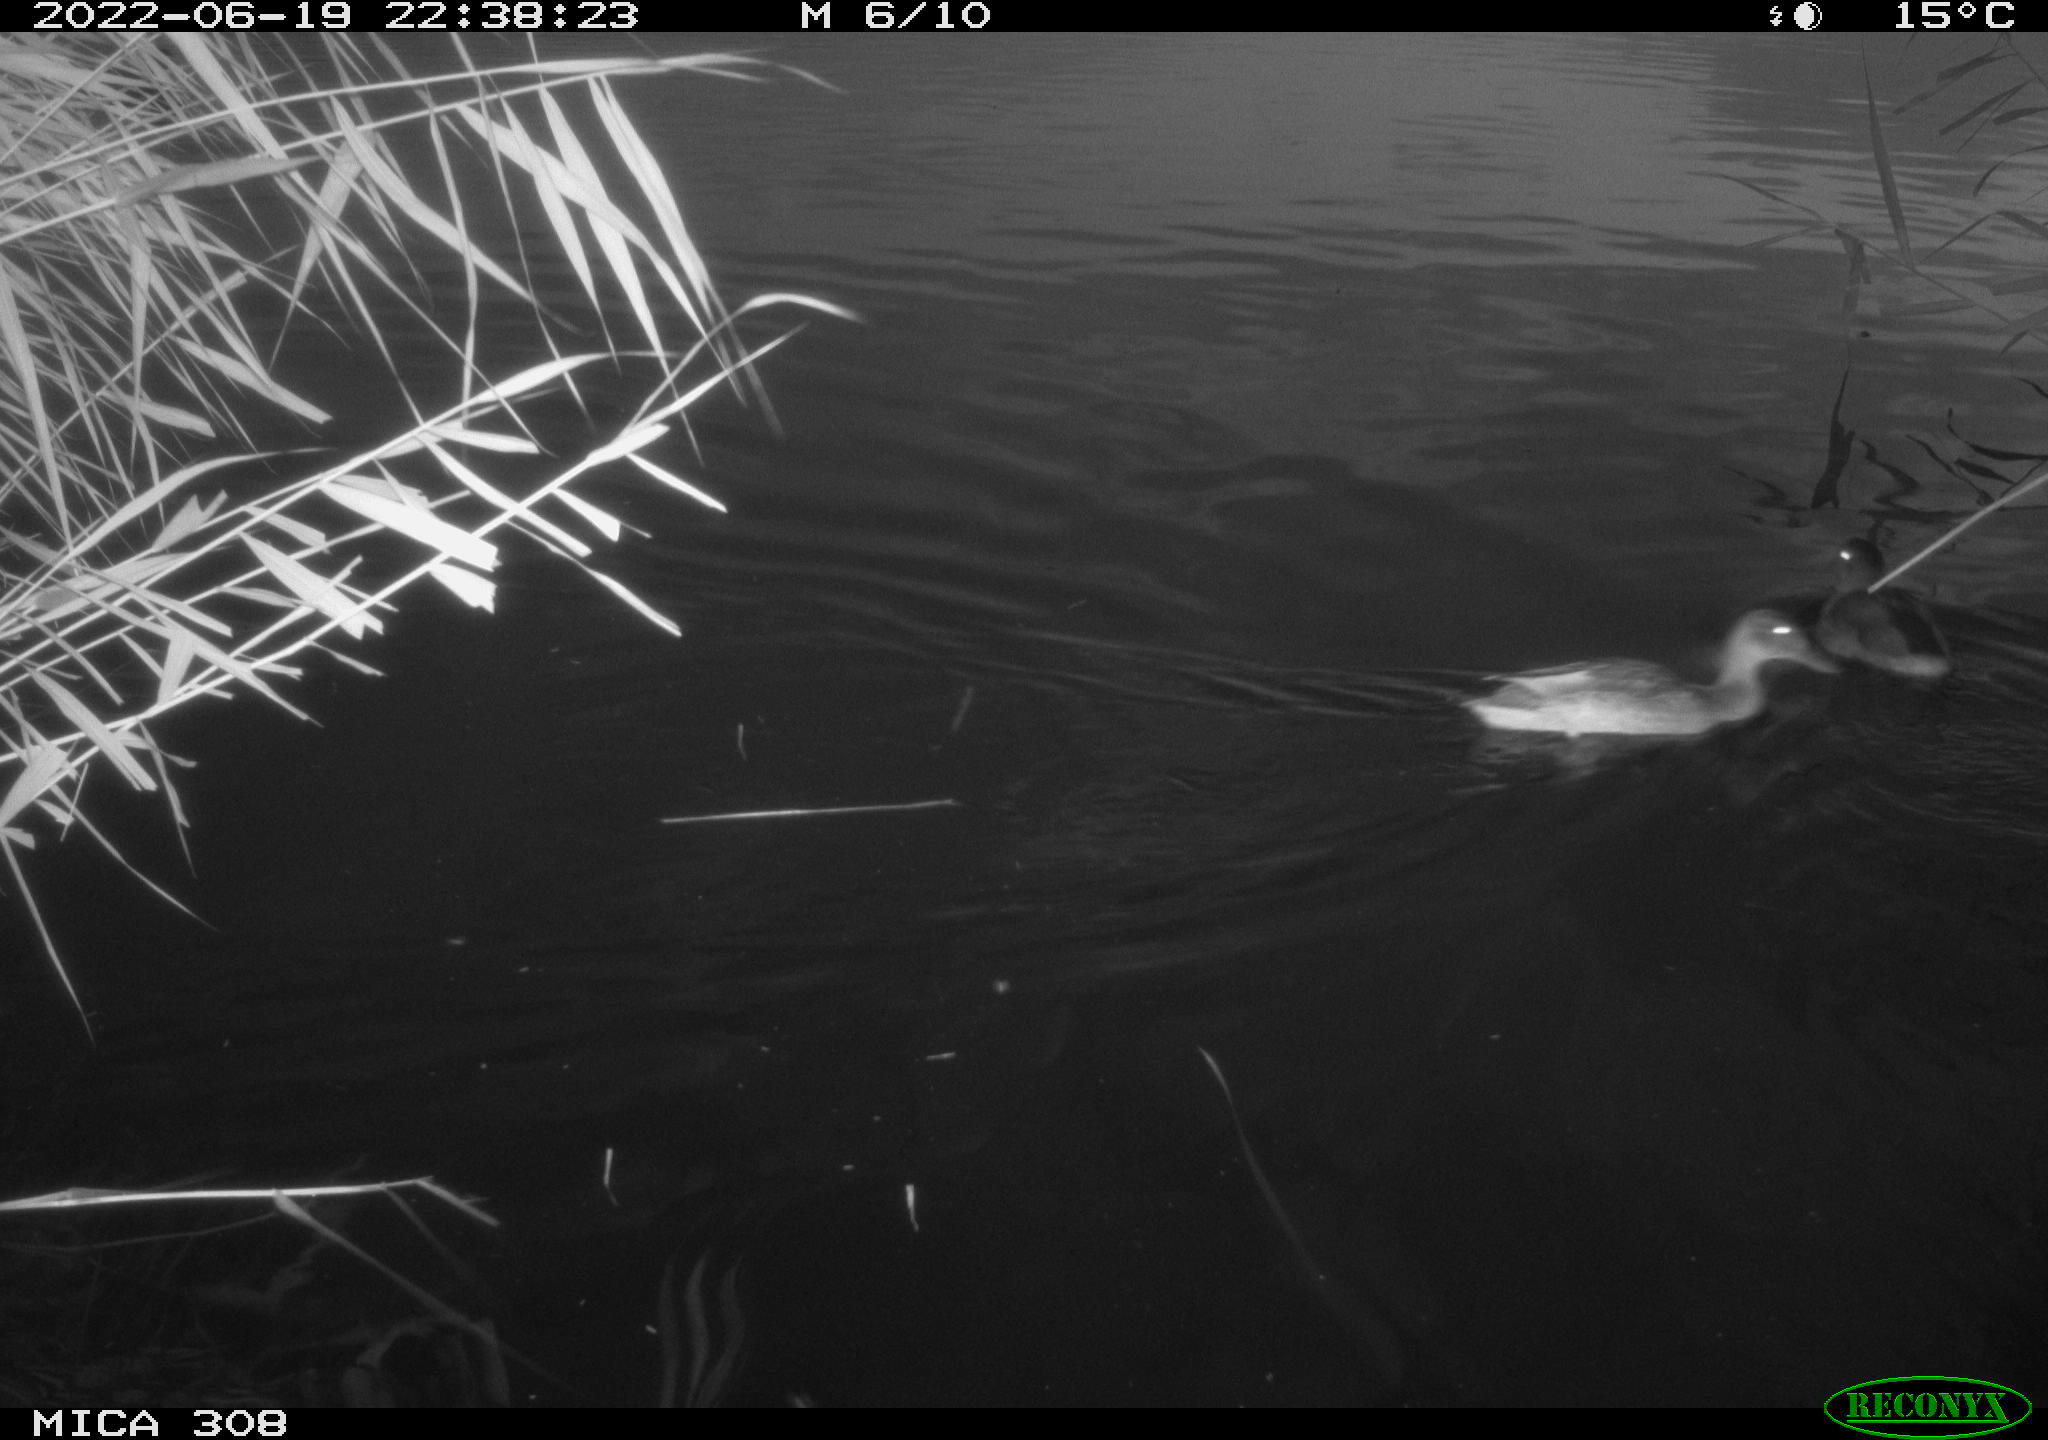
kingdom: Animalia
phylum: Chordata
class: Aves
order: Anseriformes
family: Anatidae
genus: Anas
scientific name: Anas platyrhynchos
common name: Mallard
